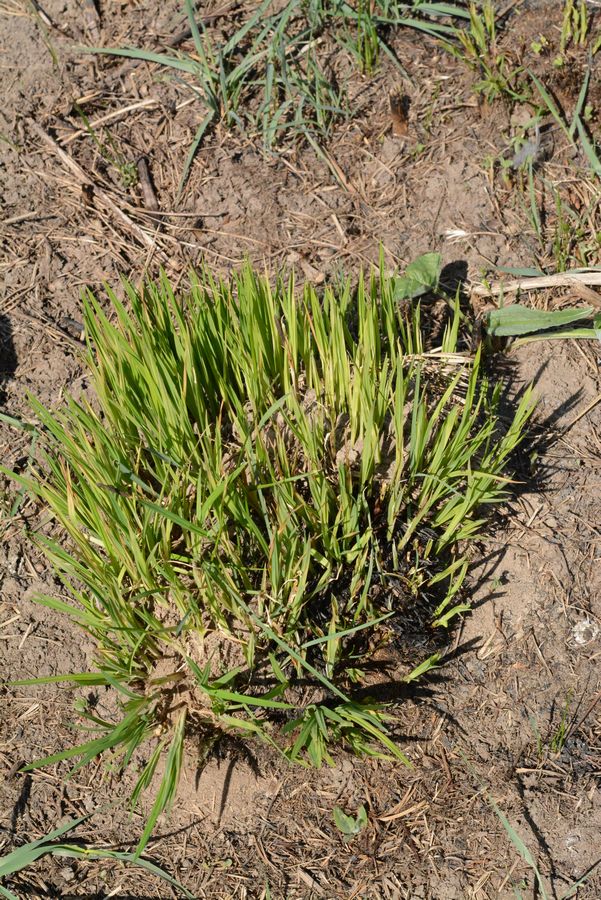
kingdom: Plantae
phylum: Tracheophyta
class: Liliopsida
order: Poales
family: Cyperaceae
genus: Carex
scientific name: Carex
